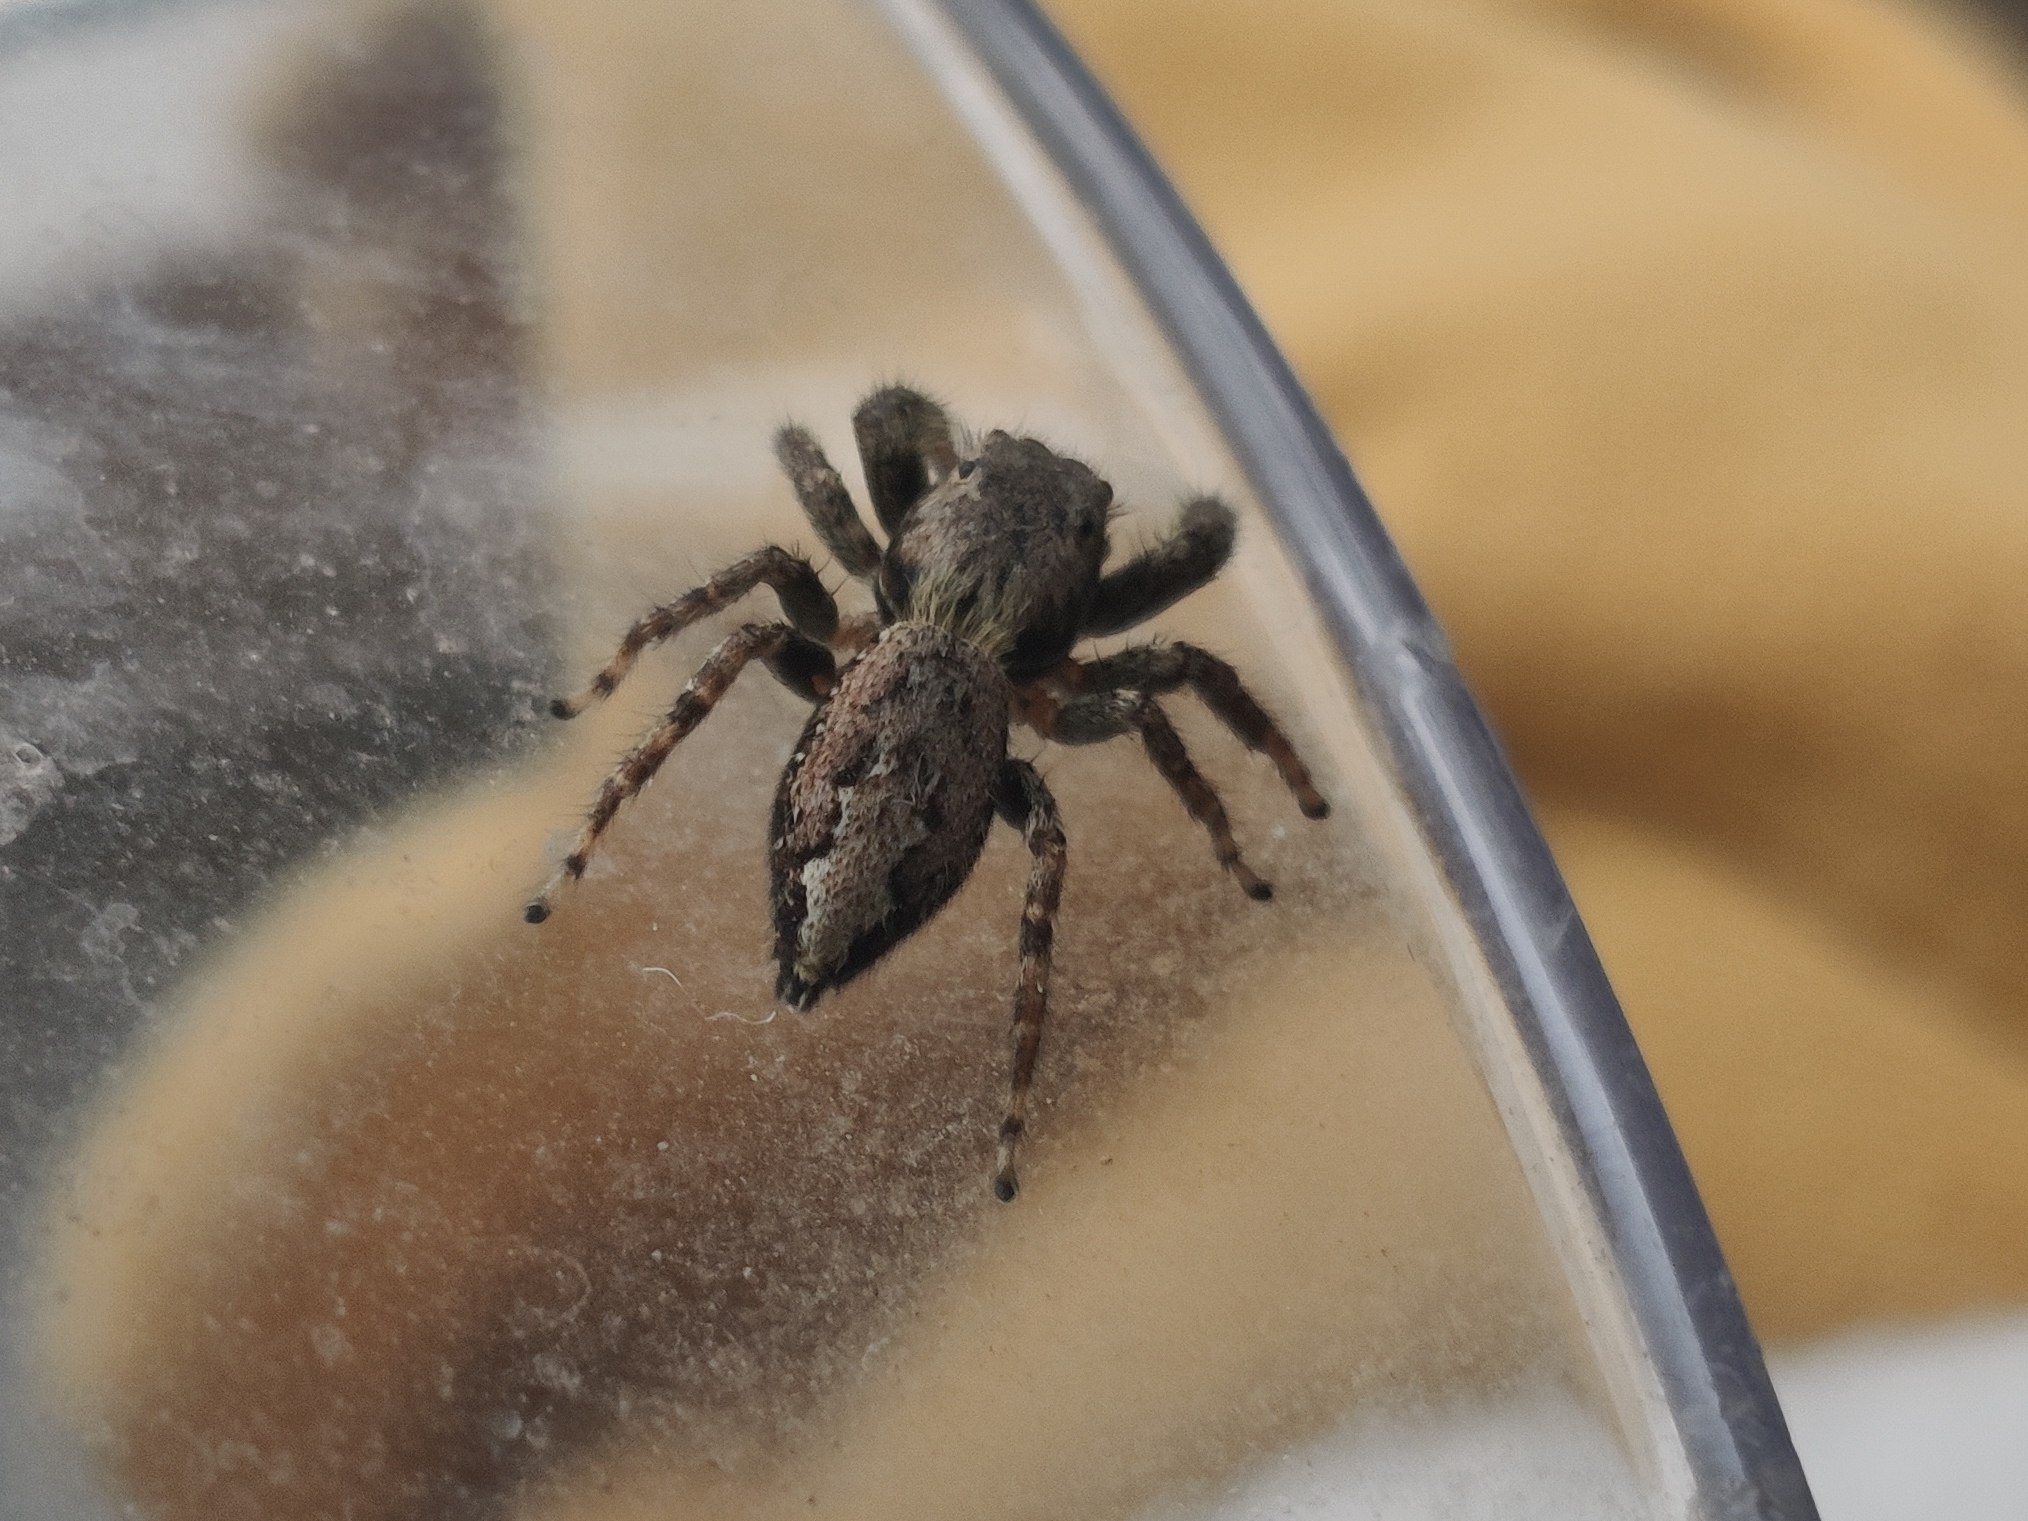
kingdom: Animalia
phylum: Arthropoda
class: Arachnida
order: Araneae
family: Salticidae
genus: Marpissa
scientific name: Marpissa muscosa
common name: Stor springedderkop
